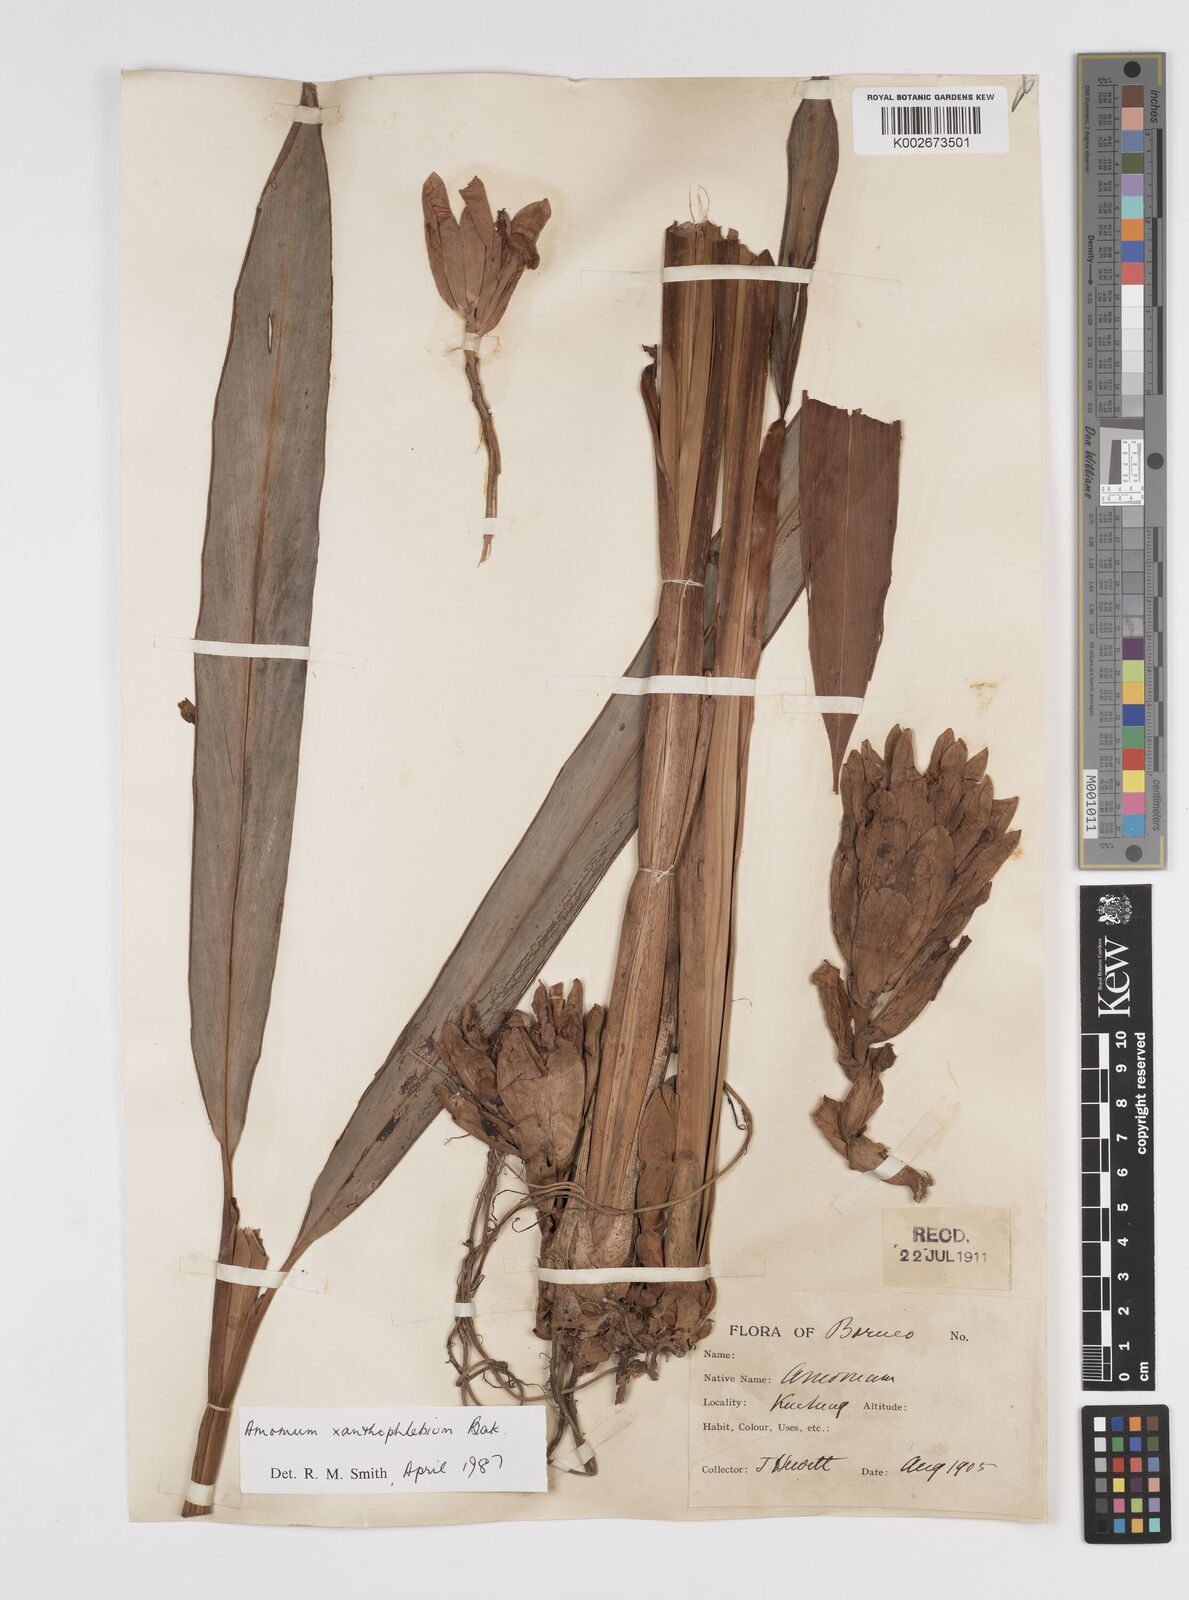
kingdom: Plantae
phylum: Tracheophyta
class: Liliopsida
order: Zingiberales
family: Zingiberaceae
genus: Conamomum
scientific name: Conamomum xanthophlebium
